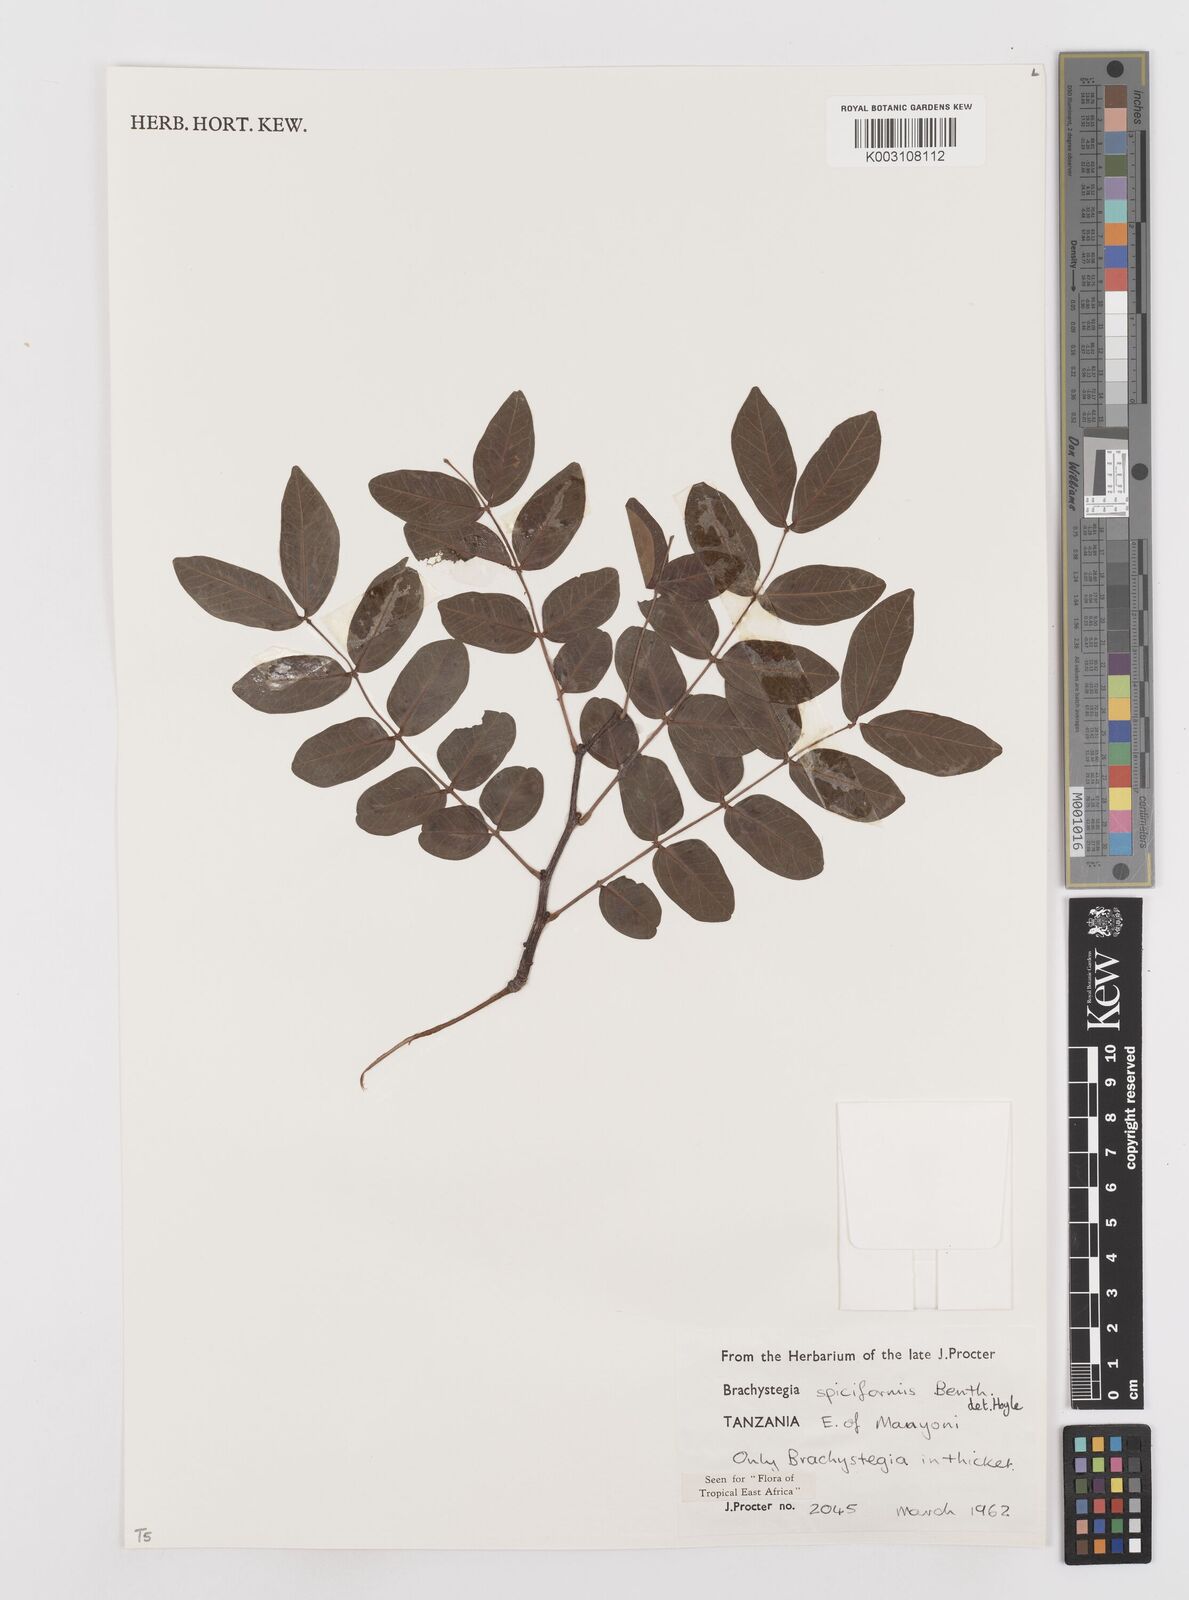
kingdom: Plantae
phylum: Tracheophyta
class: Magnoliopsida
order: Fabales
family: Fabaceae
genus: Brachystegia
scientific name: Brachystegia spiciformis
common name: Zebrawood
